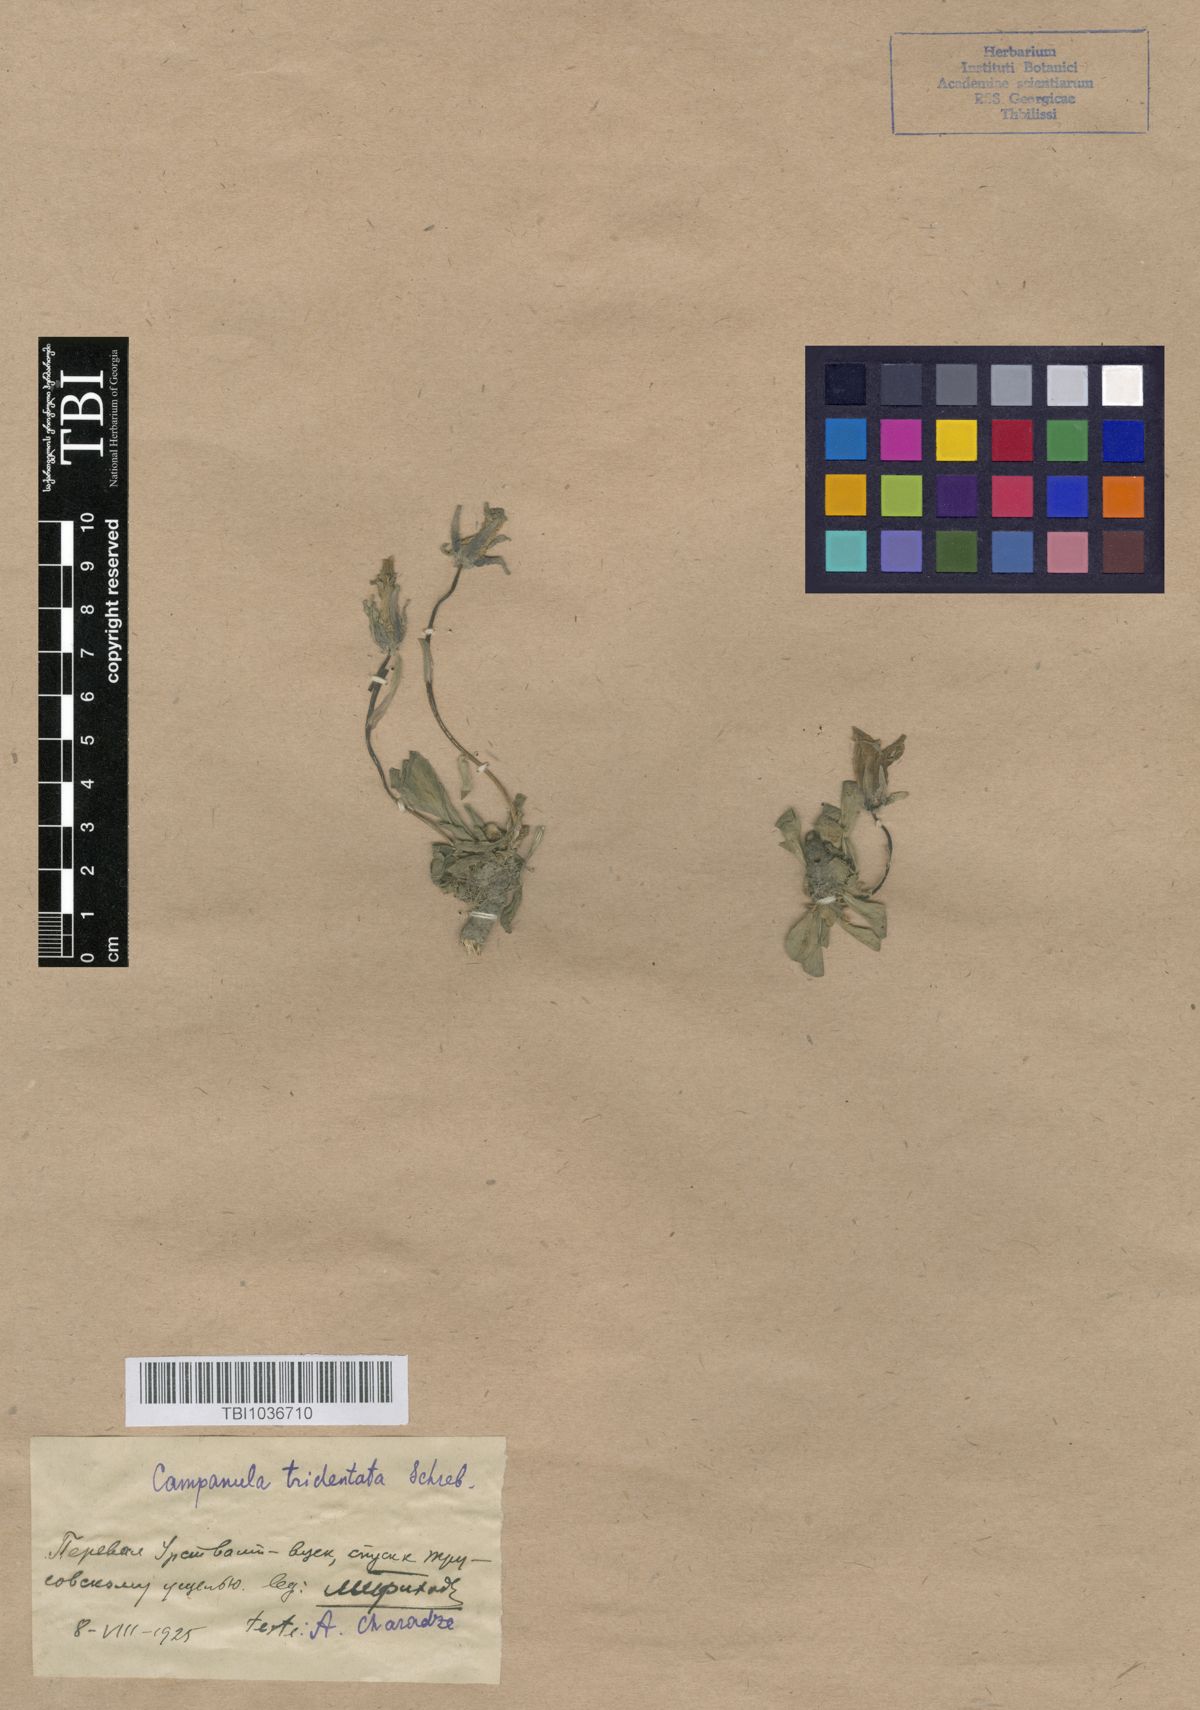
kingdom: Plantae
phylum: Tracheophyta
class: Magnoliopsida
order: Asterales
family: Campanulaceae
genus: Campanula
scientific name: Campanula tridentata
